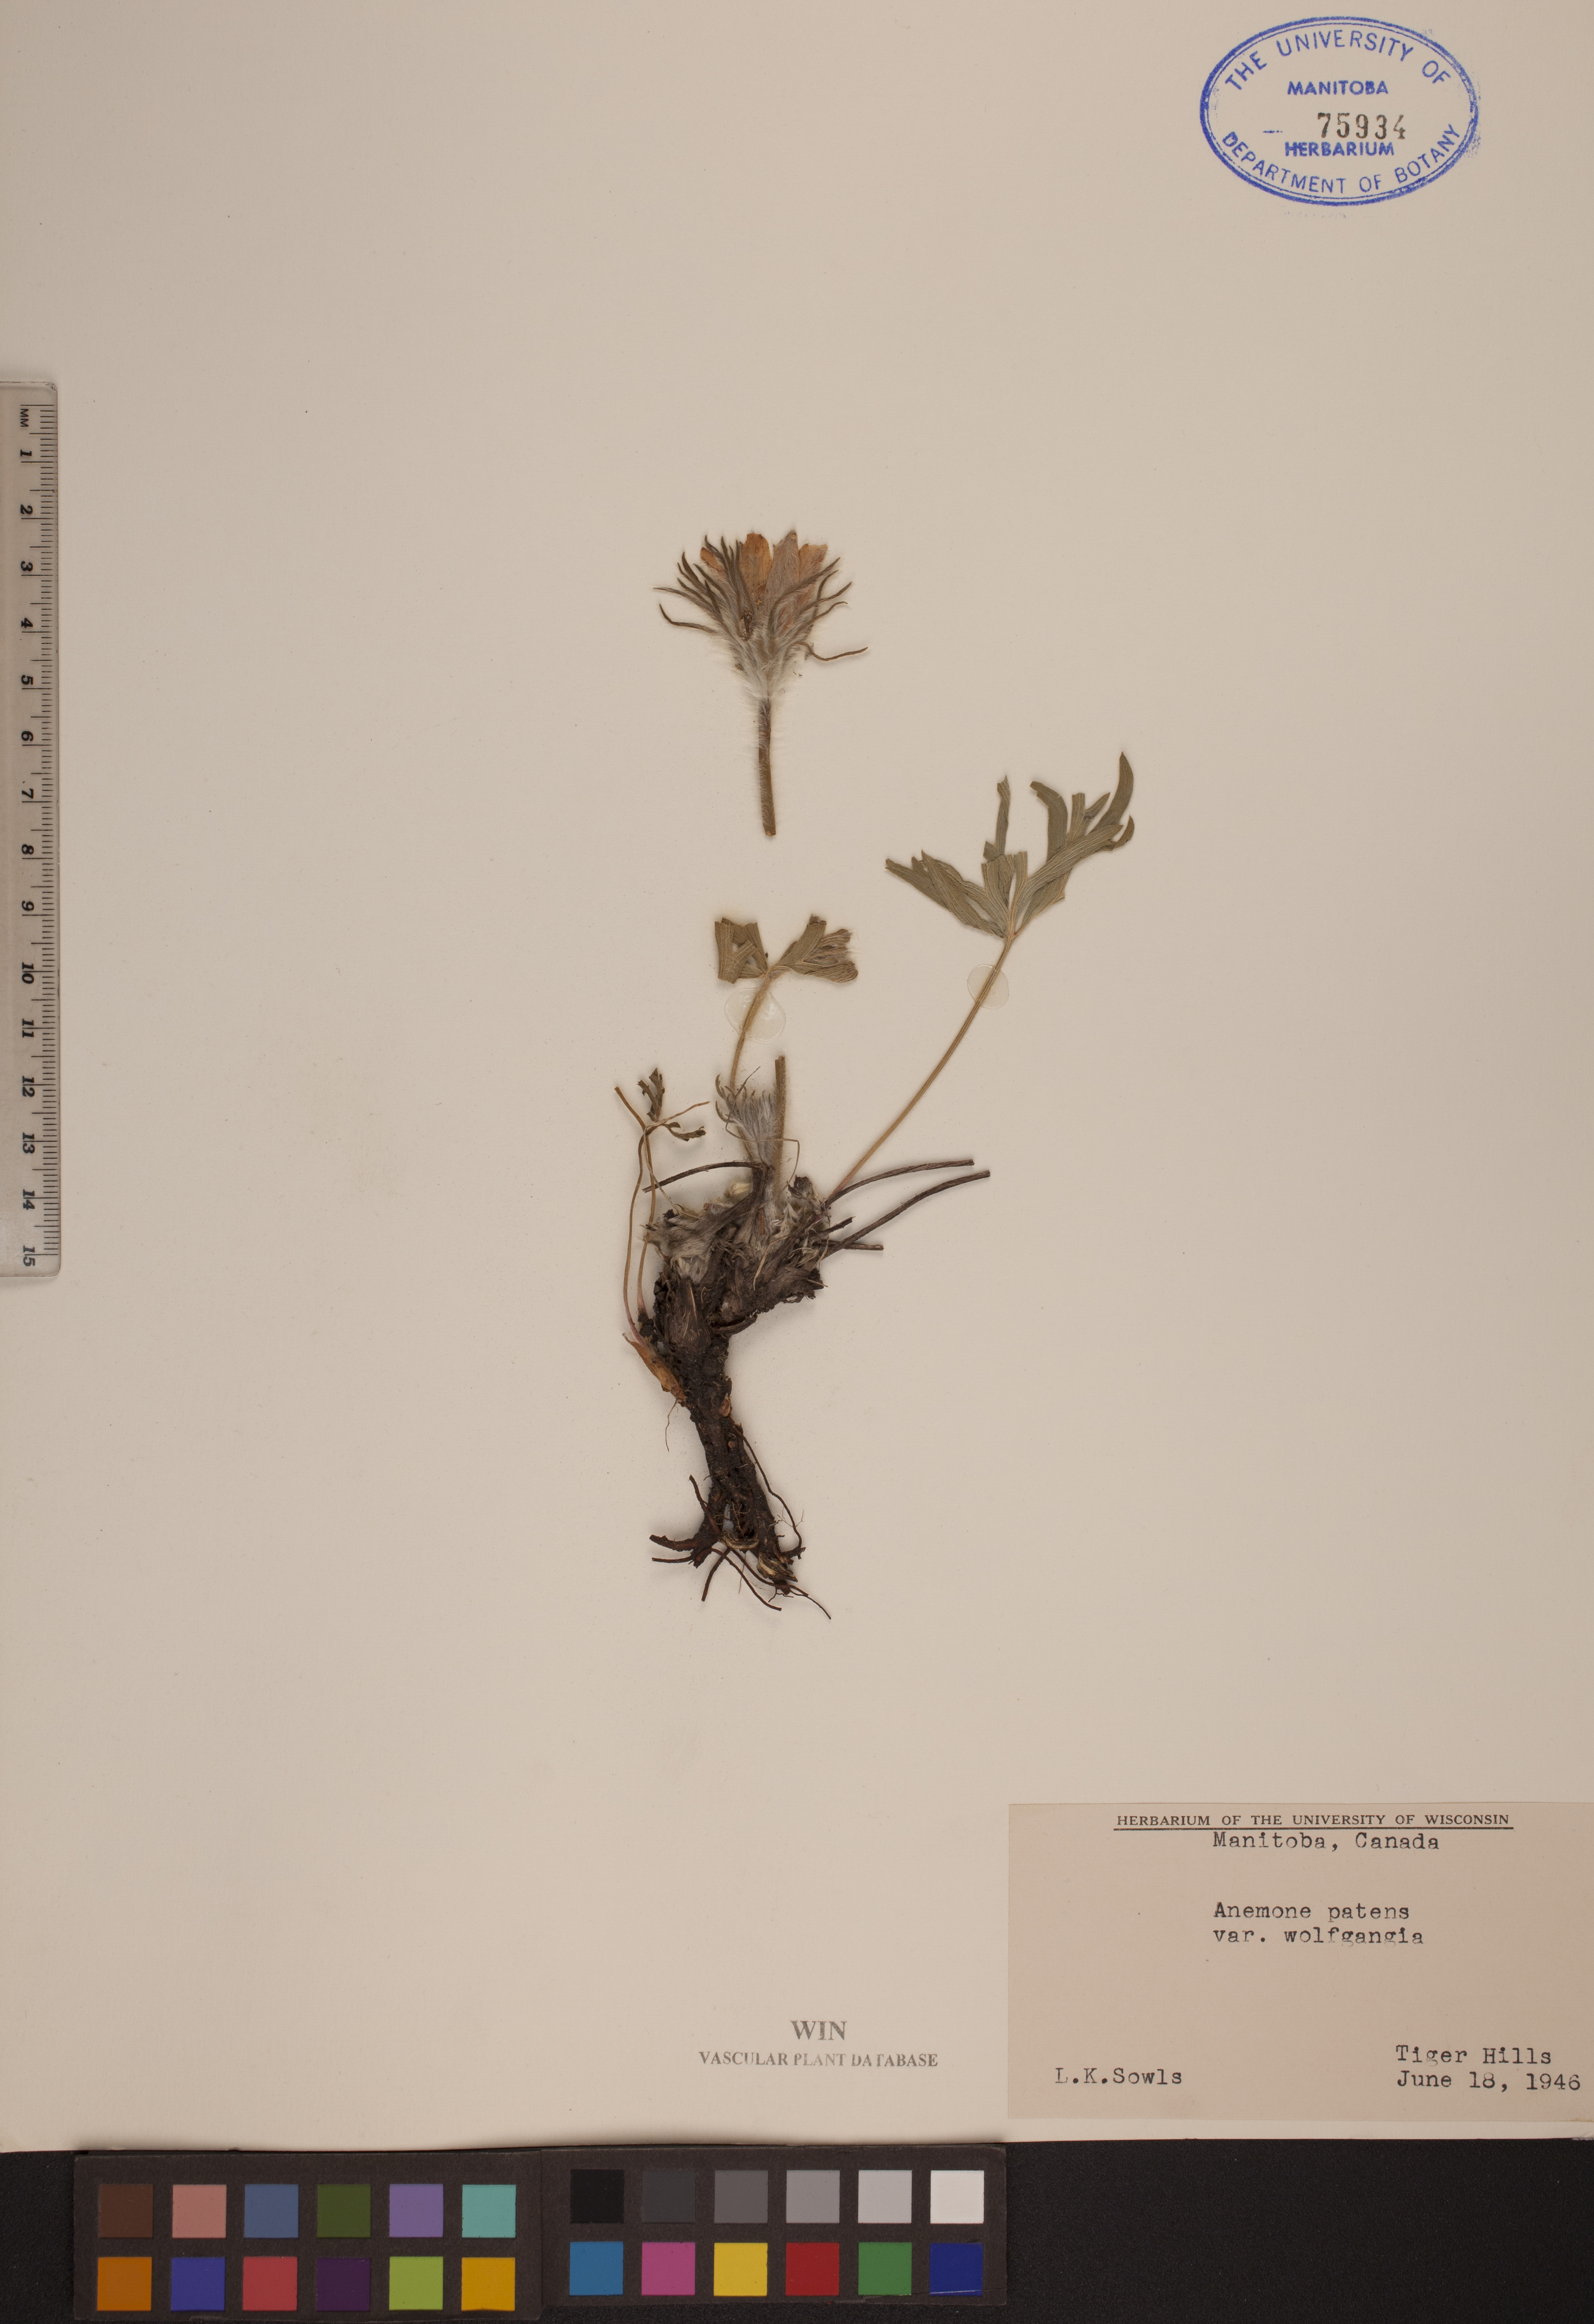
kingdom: Plantae
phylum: Tracheophyta
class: Magnoliopsida
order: Ranunculales
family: Ranunculaceae
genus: Pulsatilla
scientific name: Pulsatilla
